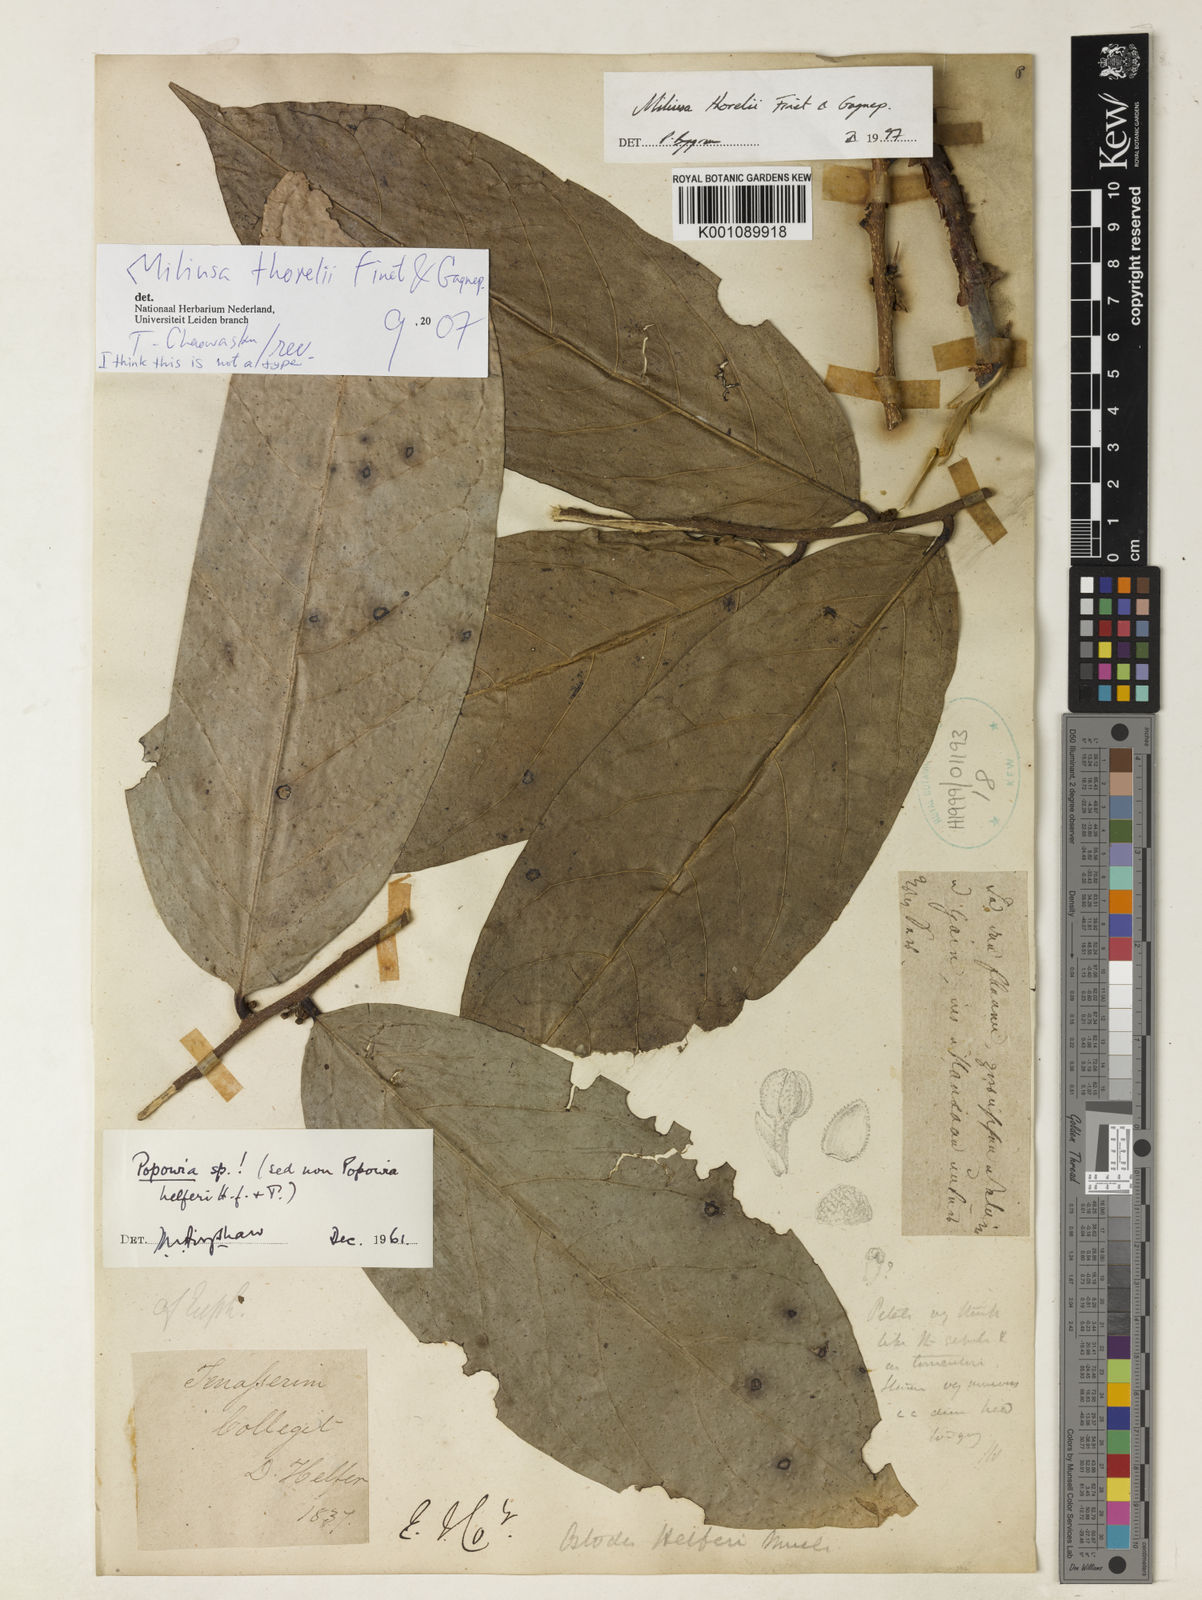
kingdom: Plantae
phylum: Tracheophyta
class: Magnoliopsida
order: Magnoliales
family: Annonaceae
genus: Miliusa
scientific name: Miliusa thorelii
